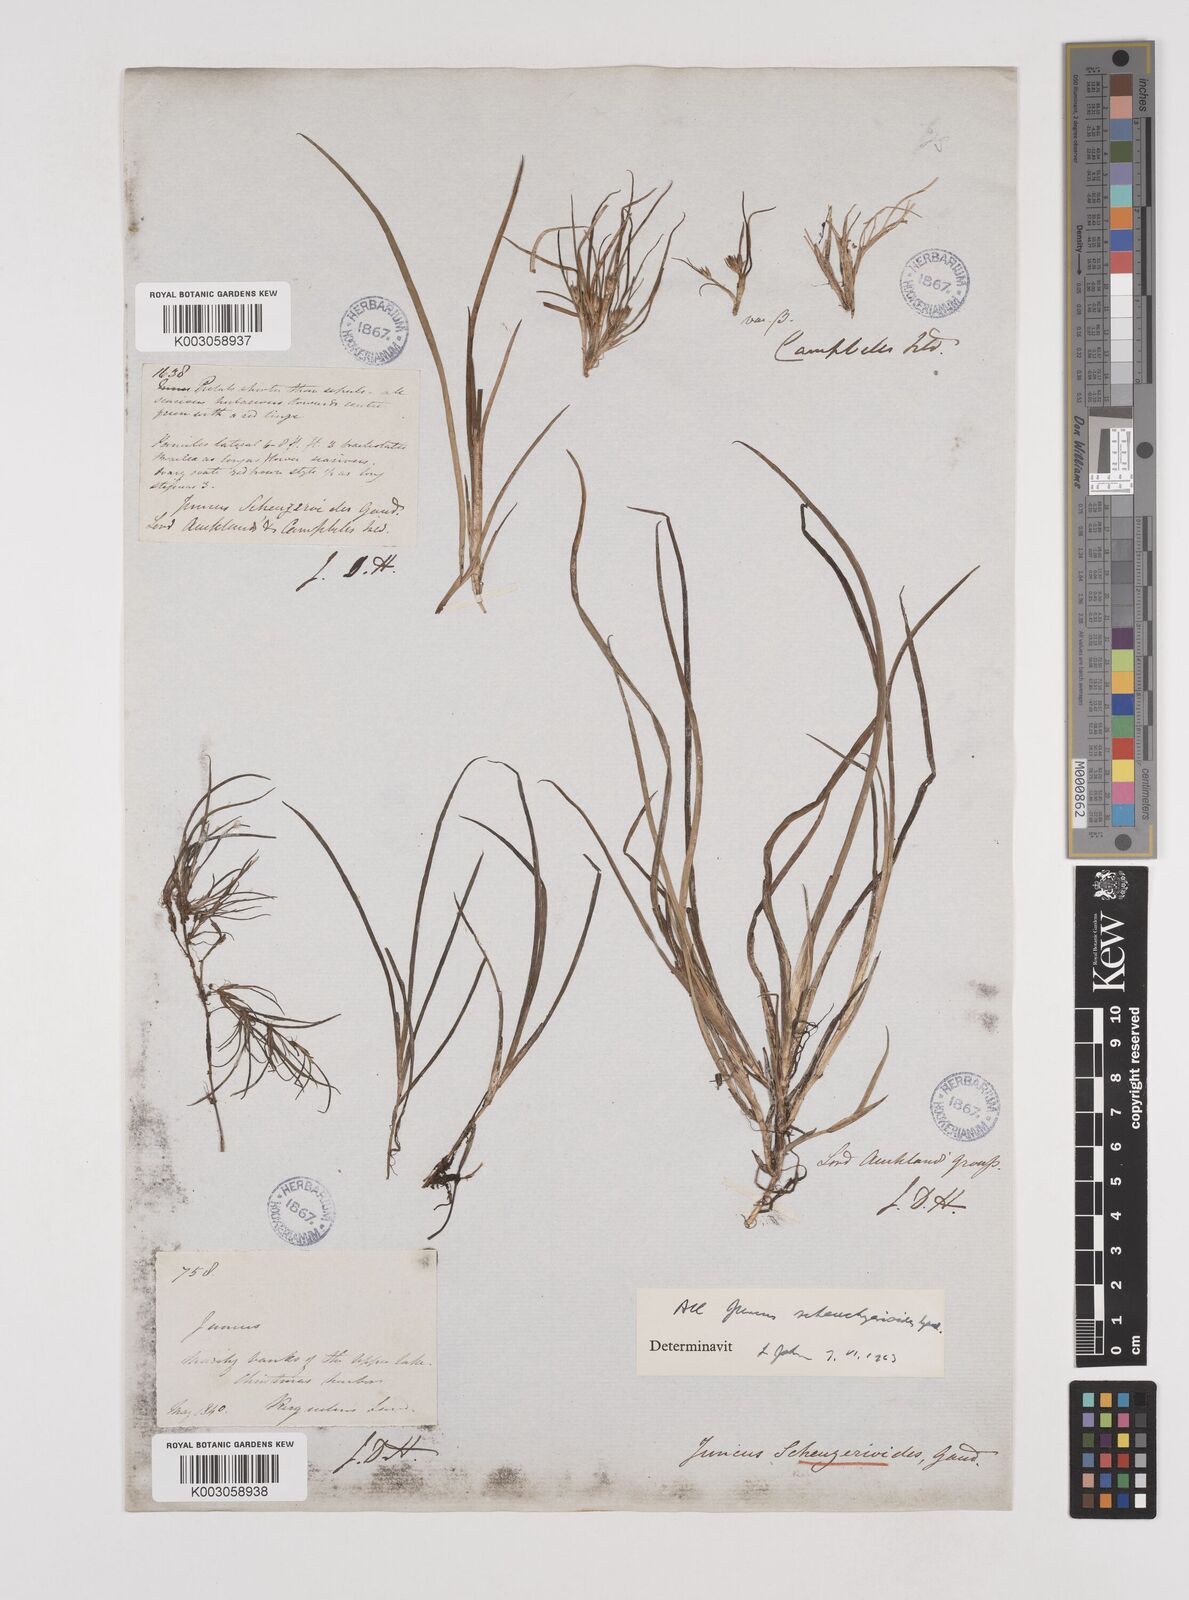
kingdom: Plantae
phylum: Tracheophyta
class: Liliopsida
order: Poales
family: Juncaceae
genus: Juncus
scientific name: Juncus scheuchzerioides
